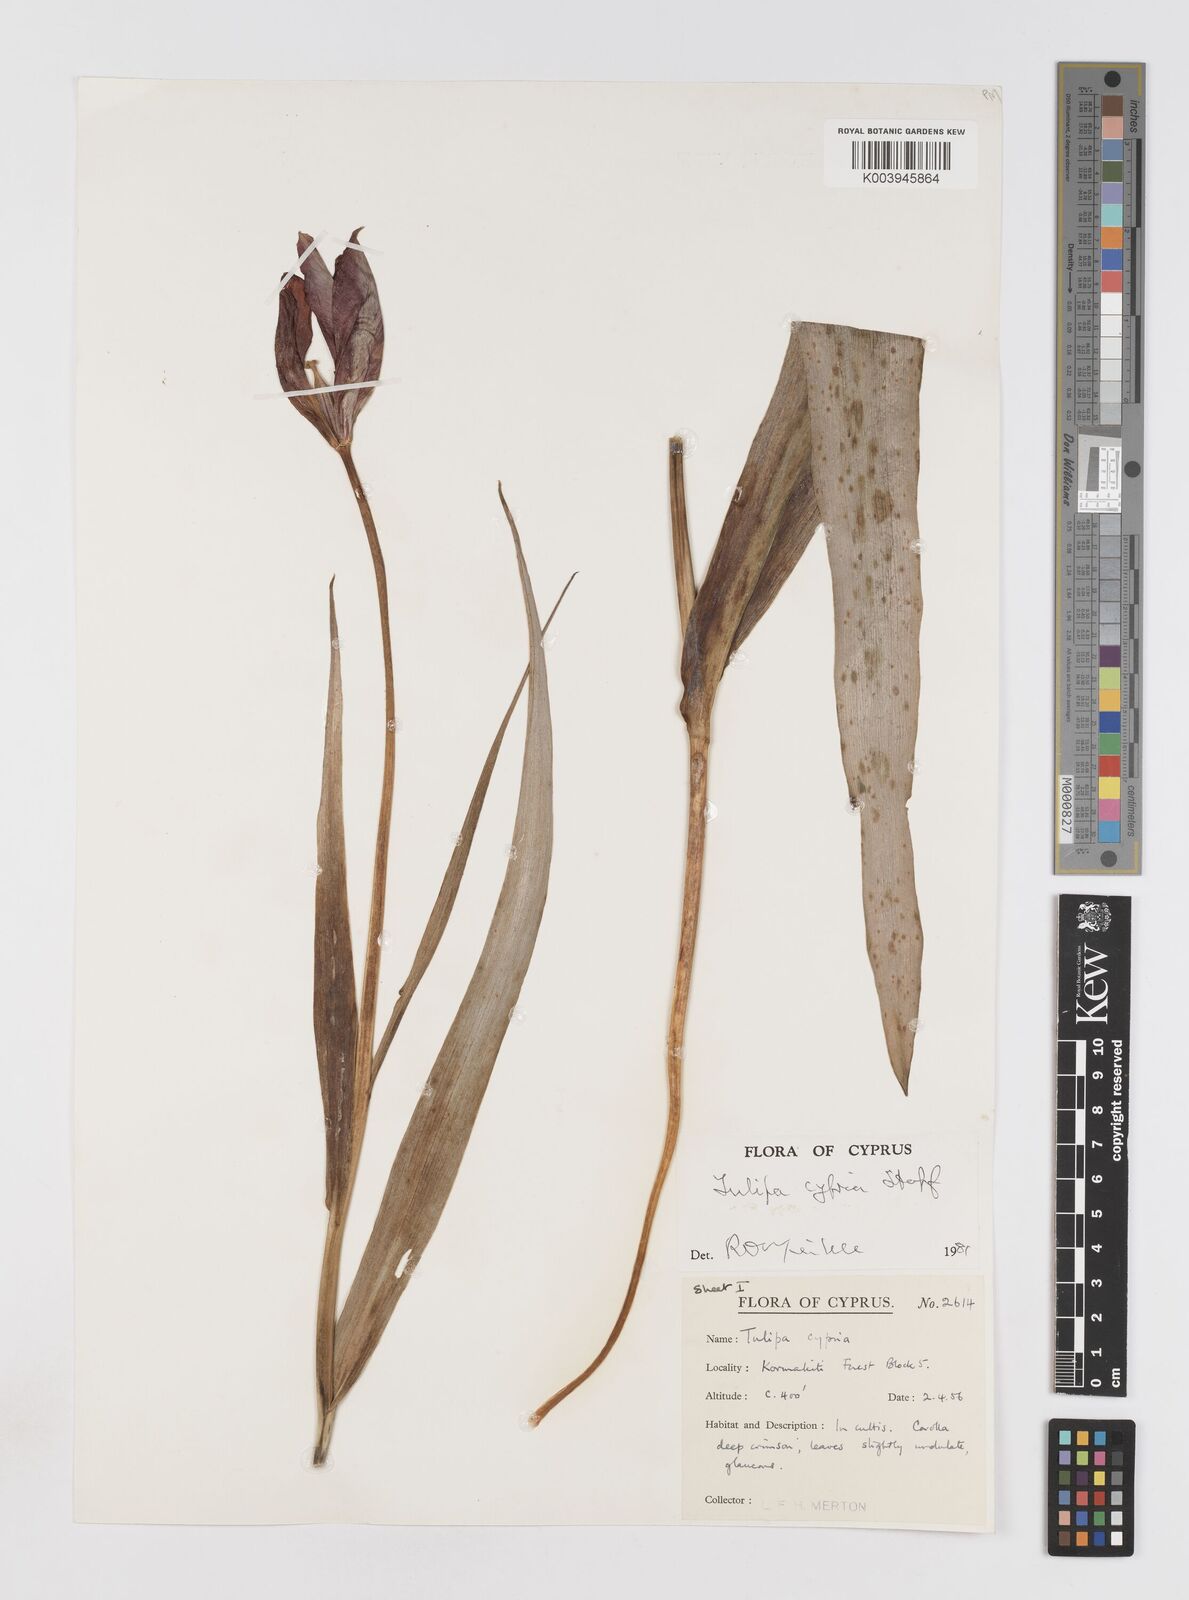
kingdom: Plantae
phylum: Tracheophyta
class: Liliopsida
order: Liliales
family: Liliaceae
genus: Tulipa
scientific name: Tulipa agenensis
